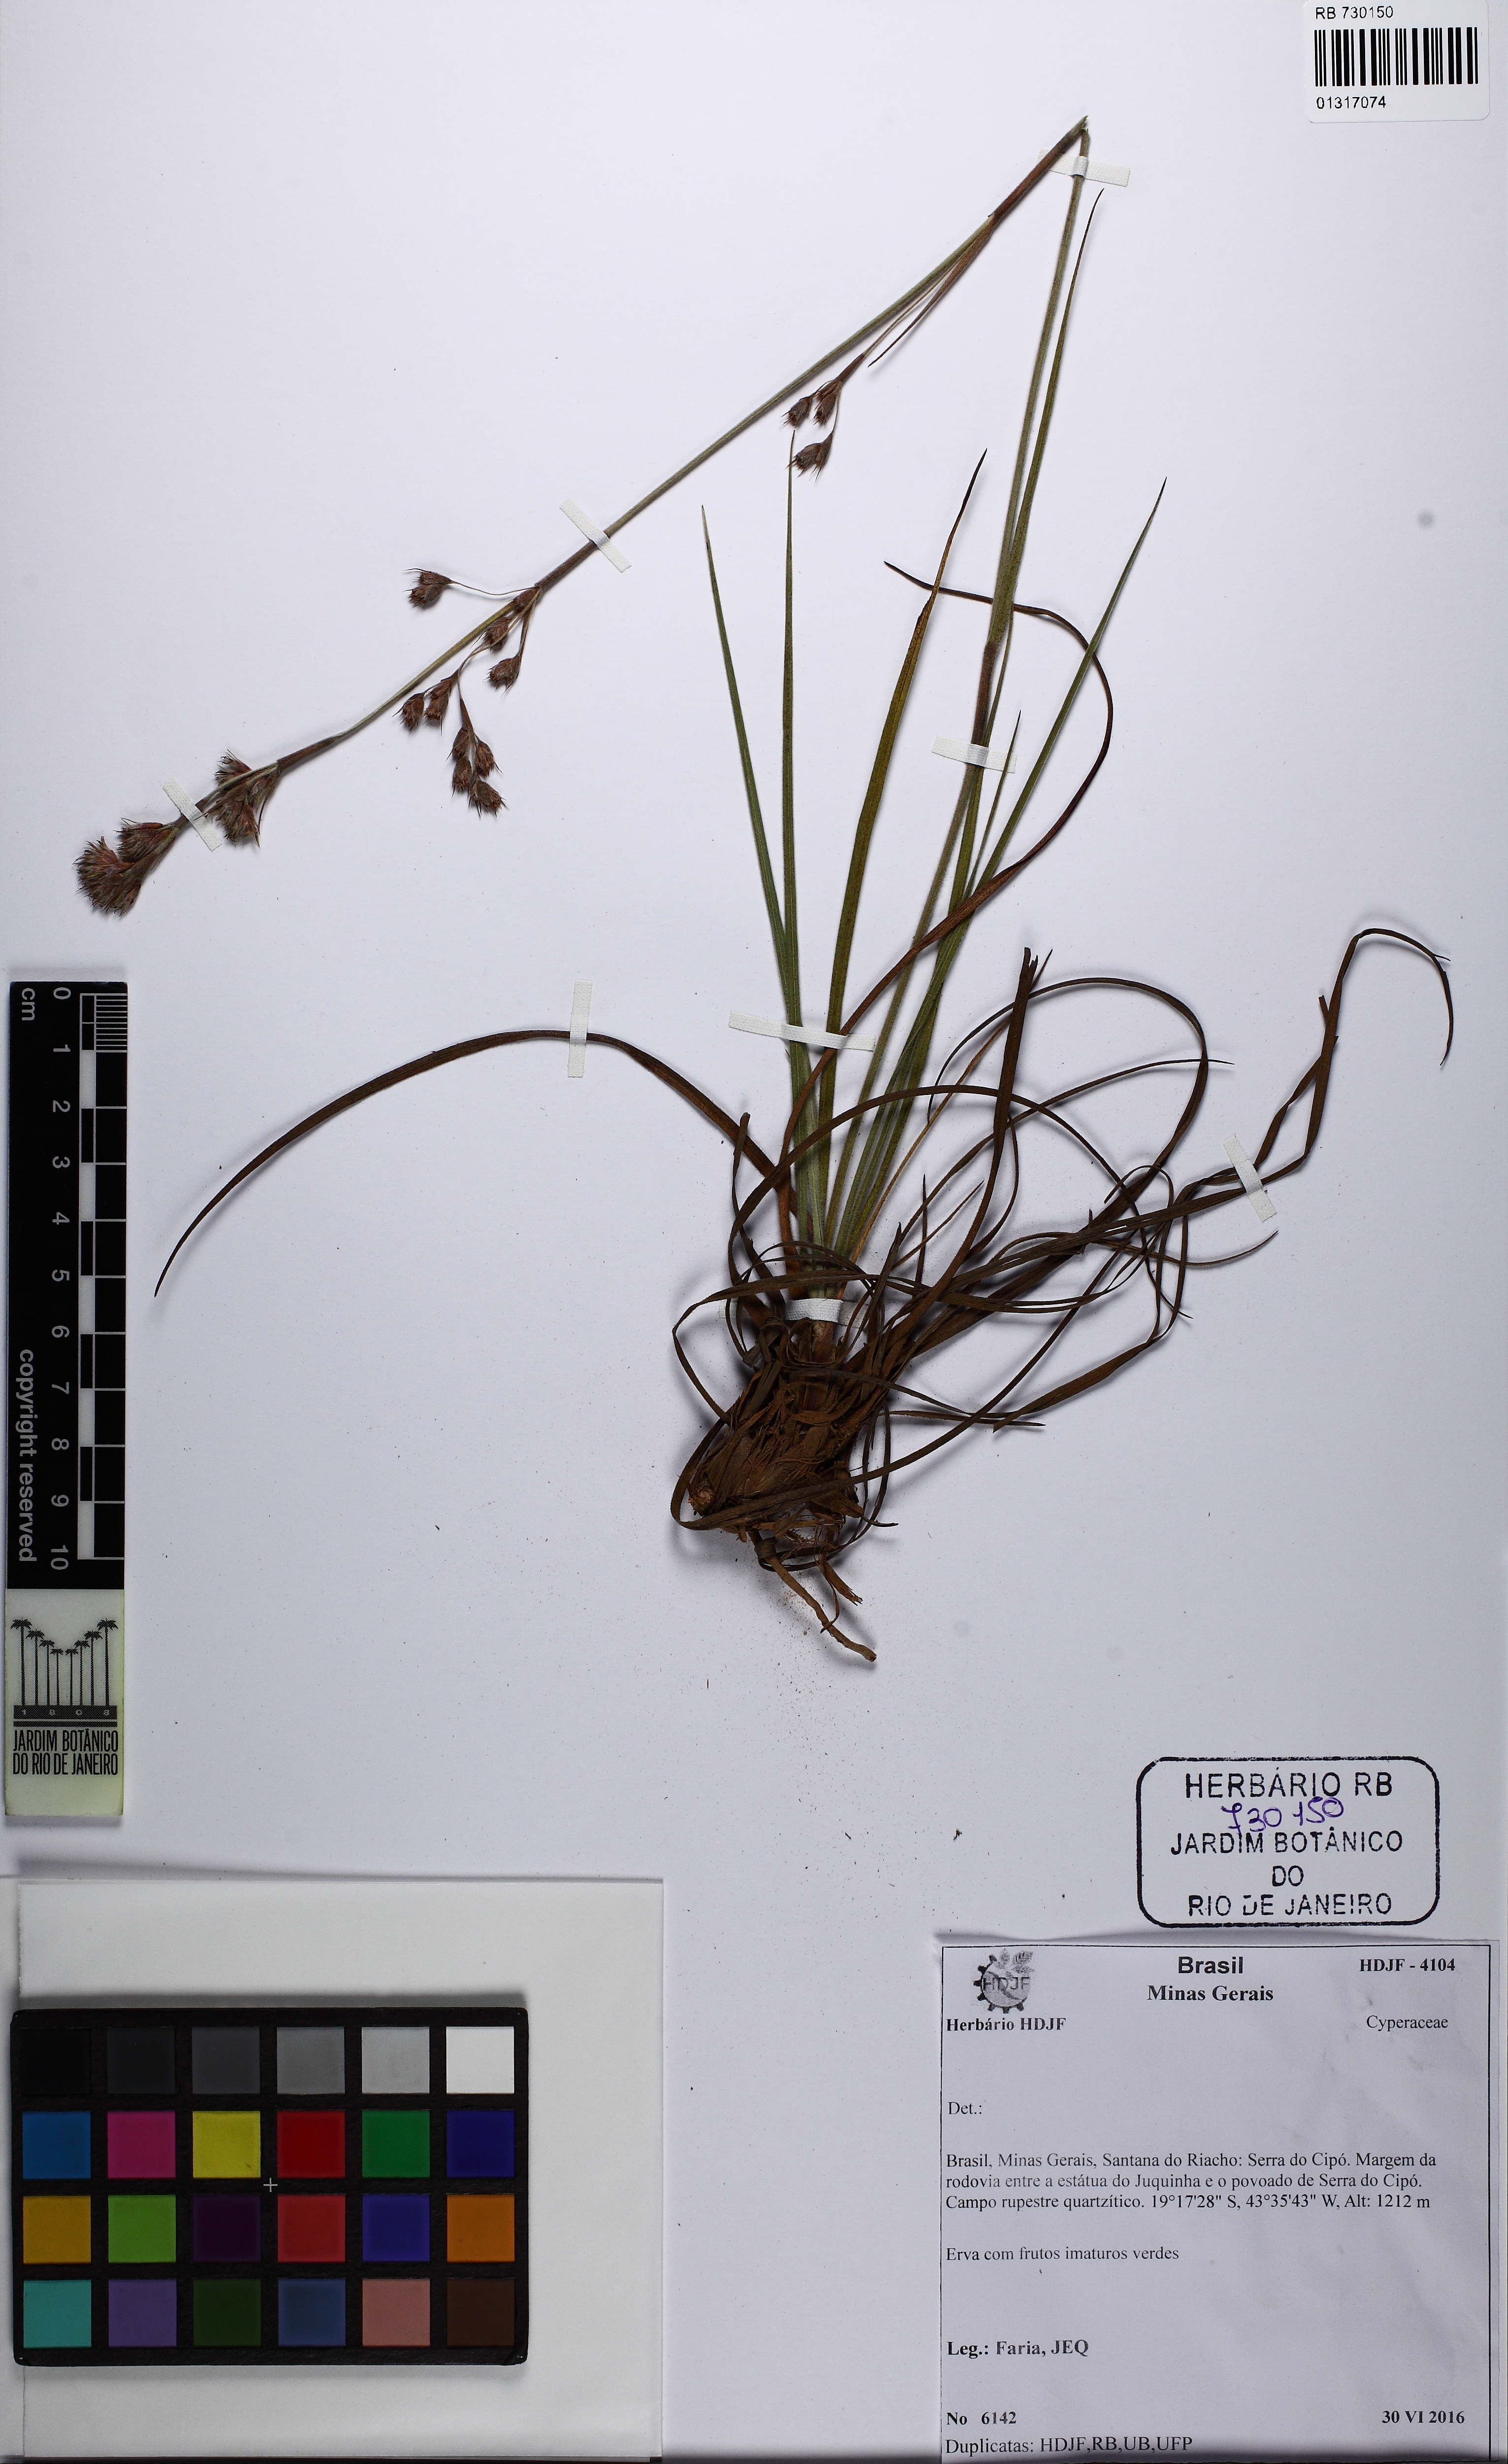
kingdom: Plantae
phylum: Tracheophyta
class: Liliopsida
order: Poales
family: Cyperaceae
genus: Lagenocarpus
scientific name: Lagenocarpus
